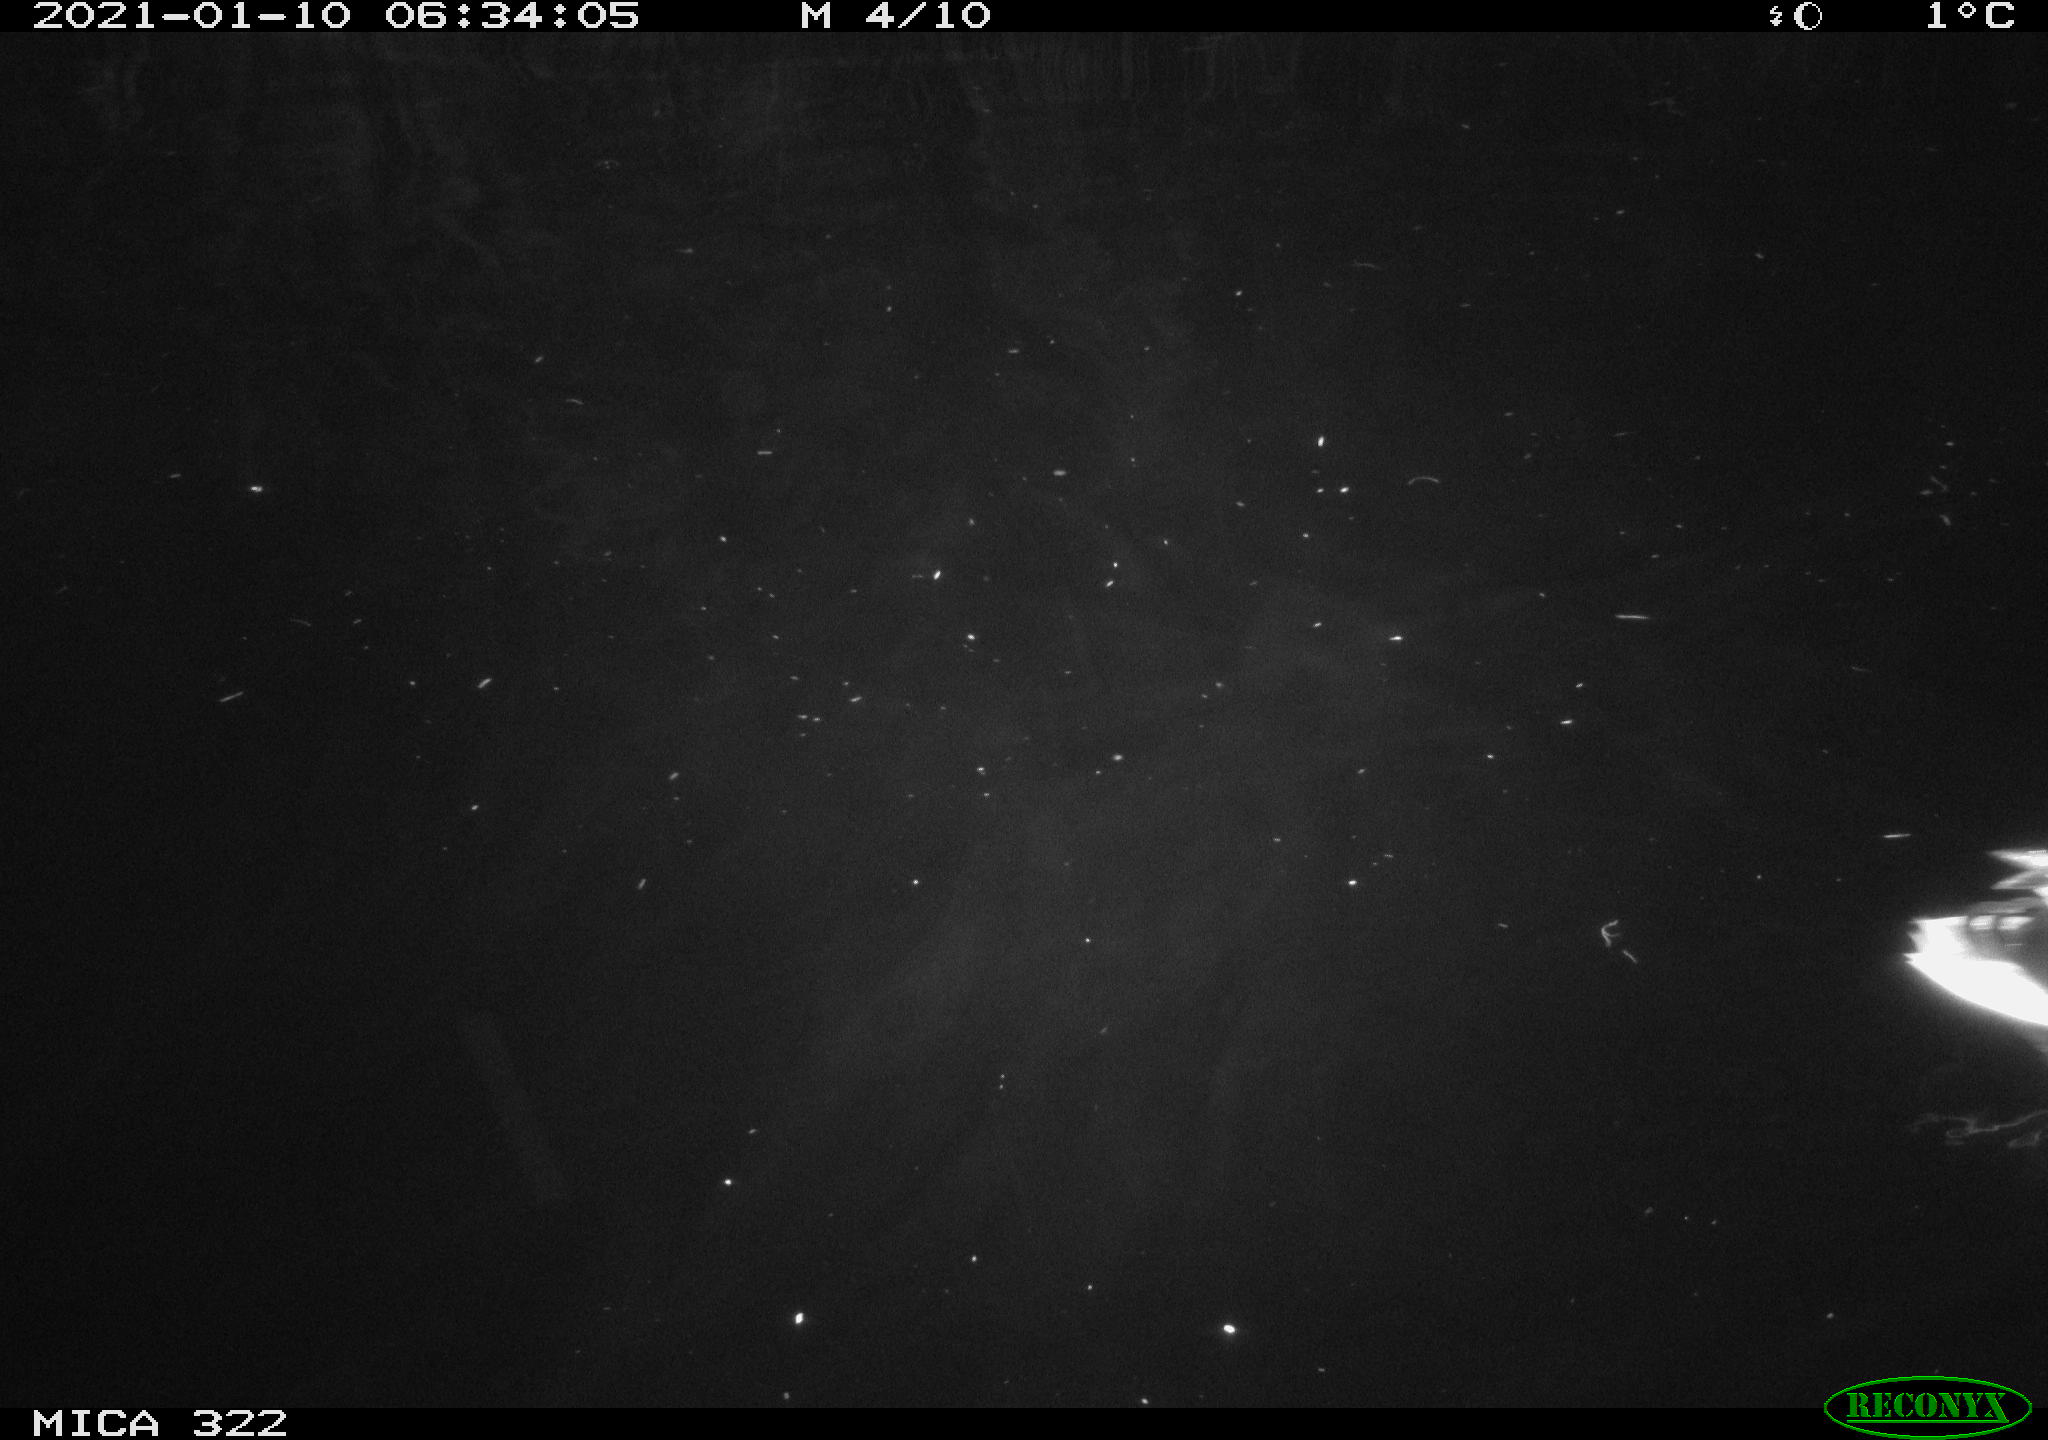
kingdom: Animalia
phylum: Chordata
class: Mammalia
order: Rodentia
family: Muridae
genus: Rattus
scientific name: Rattus norvegicus
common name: Brown rat
